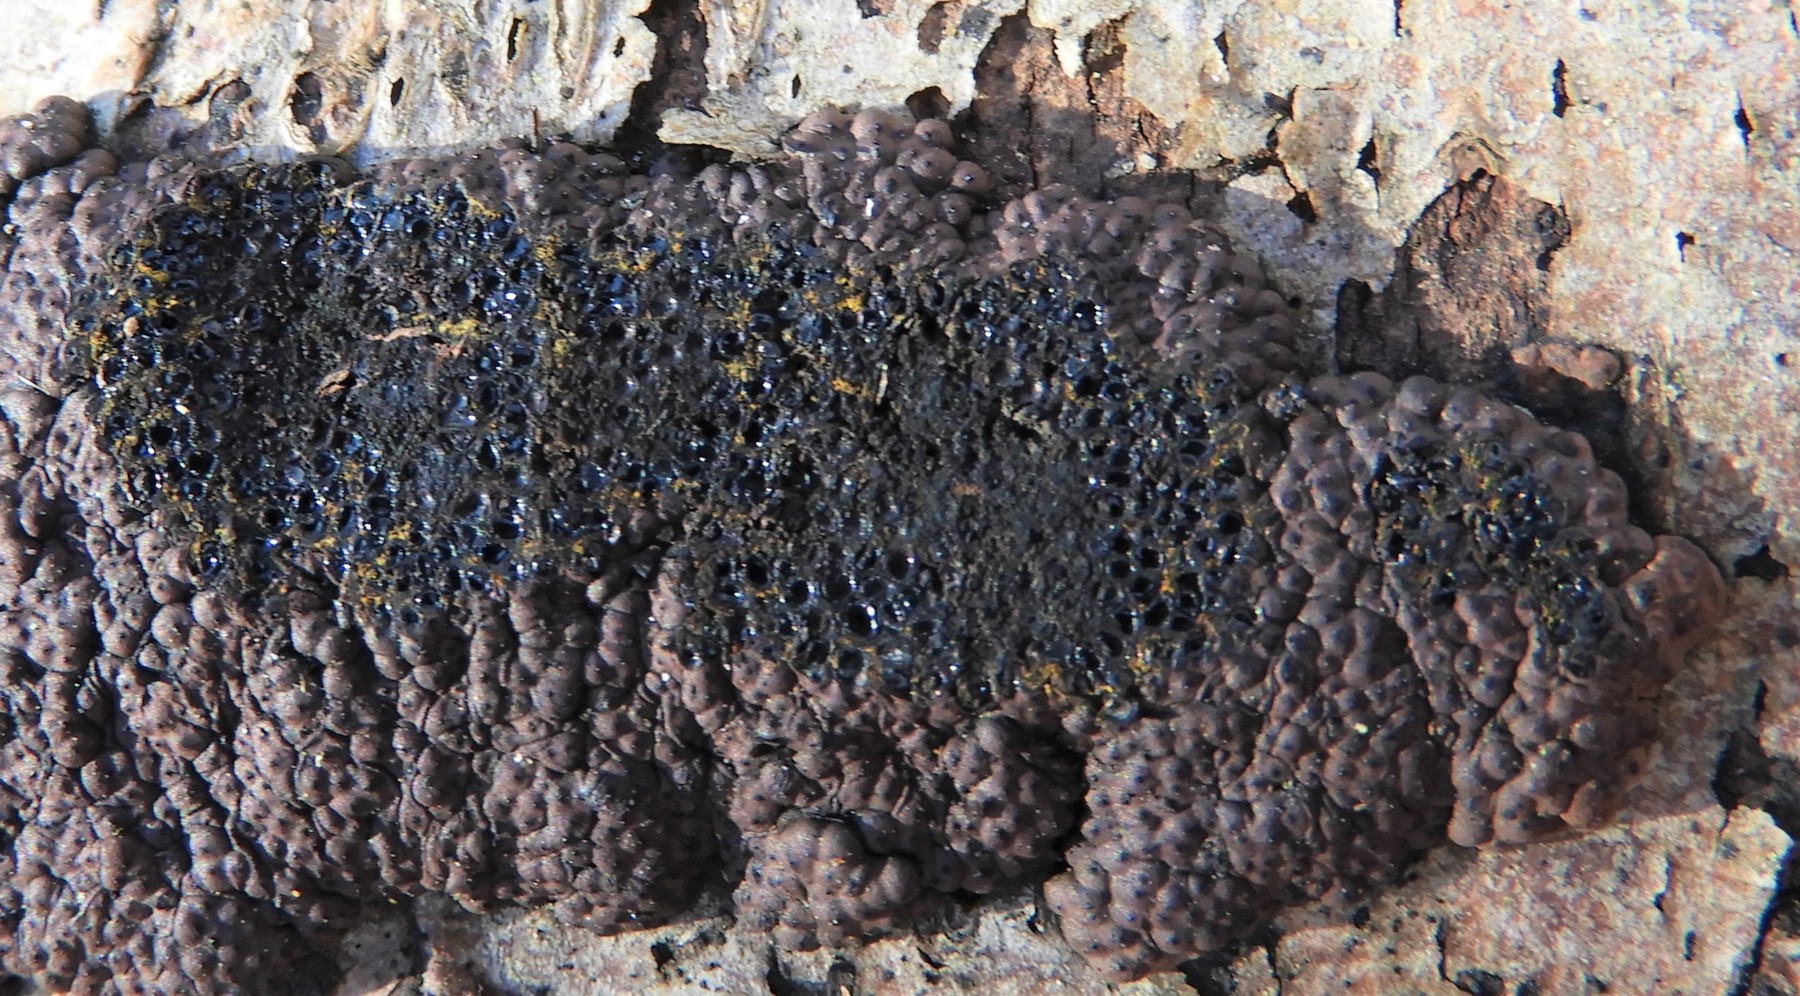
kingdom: Fungi
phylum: Ascomycota
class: Sordariomycetes
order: Xylariales
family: Hypoxylaceae
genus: Jackrogersella
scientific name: Jackrogersella cohaerens
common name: sammenflydende kulbær
